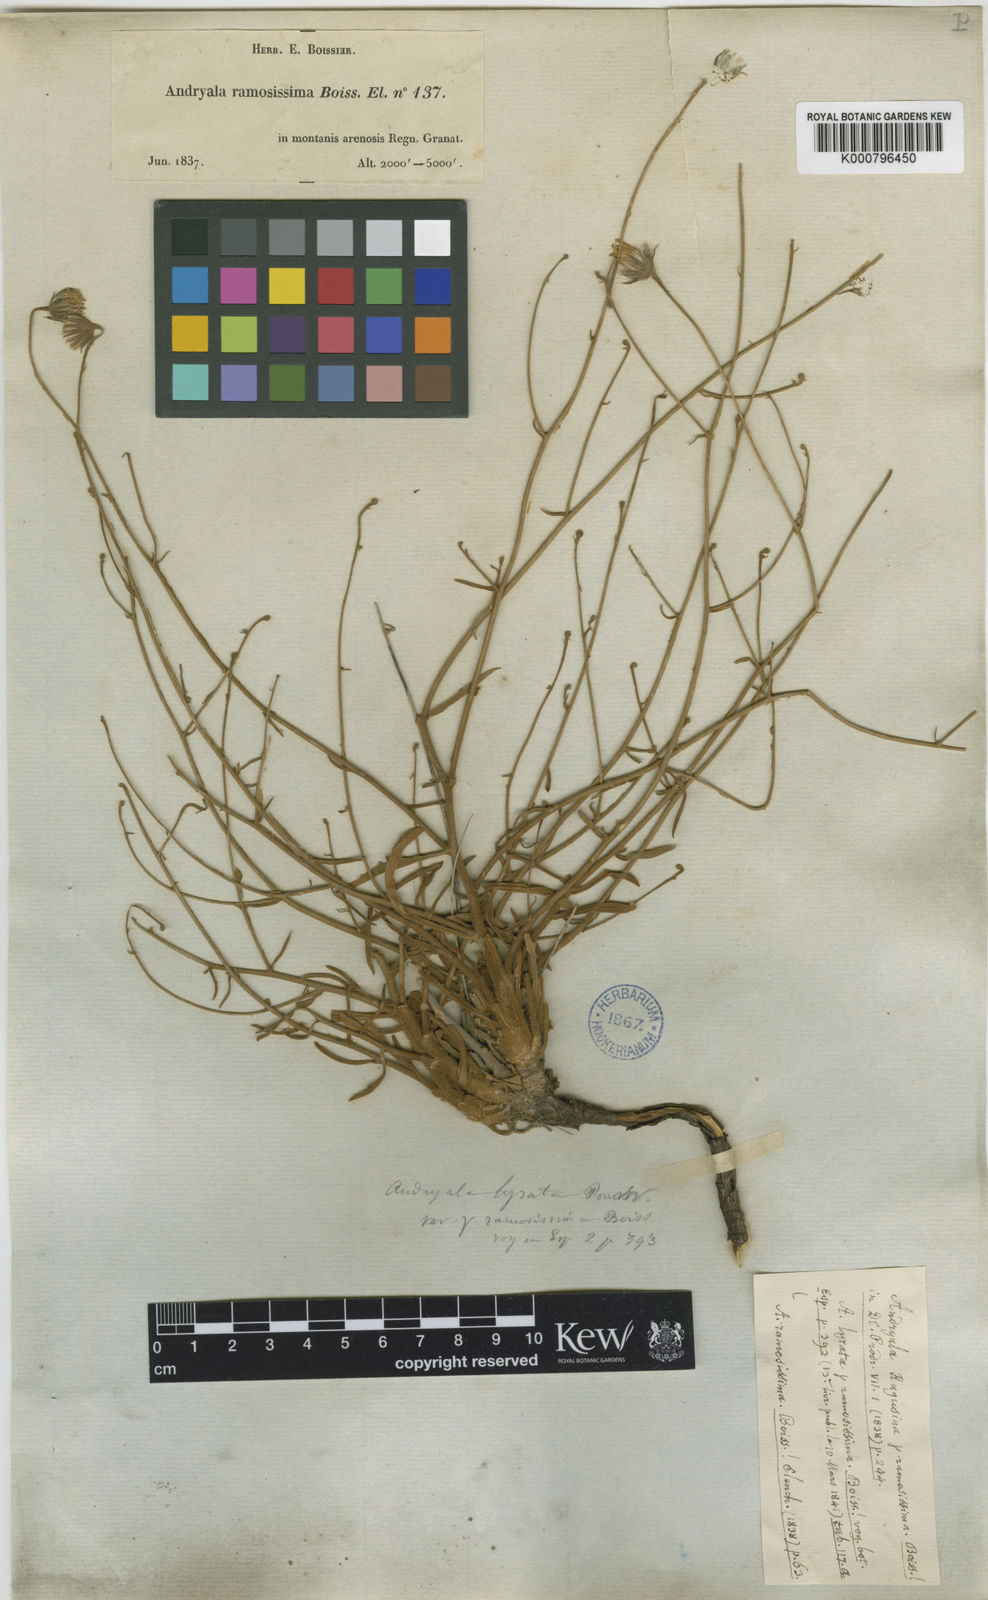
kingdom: Plantae
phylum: Tracheophyta
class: Magnoliopsida
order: Asterales
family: Asteraceae
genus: Andryala
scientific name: Andryala ragusina
